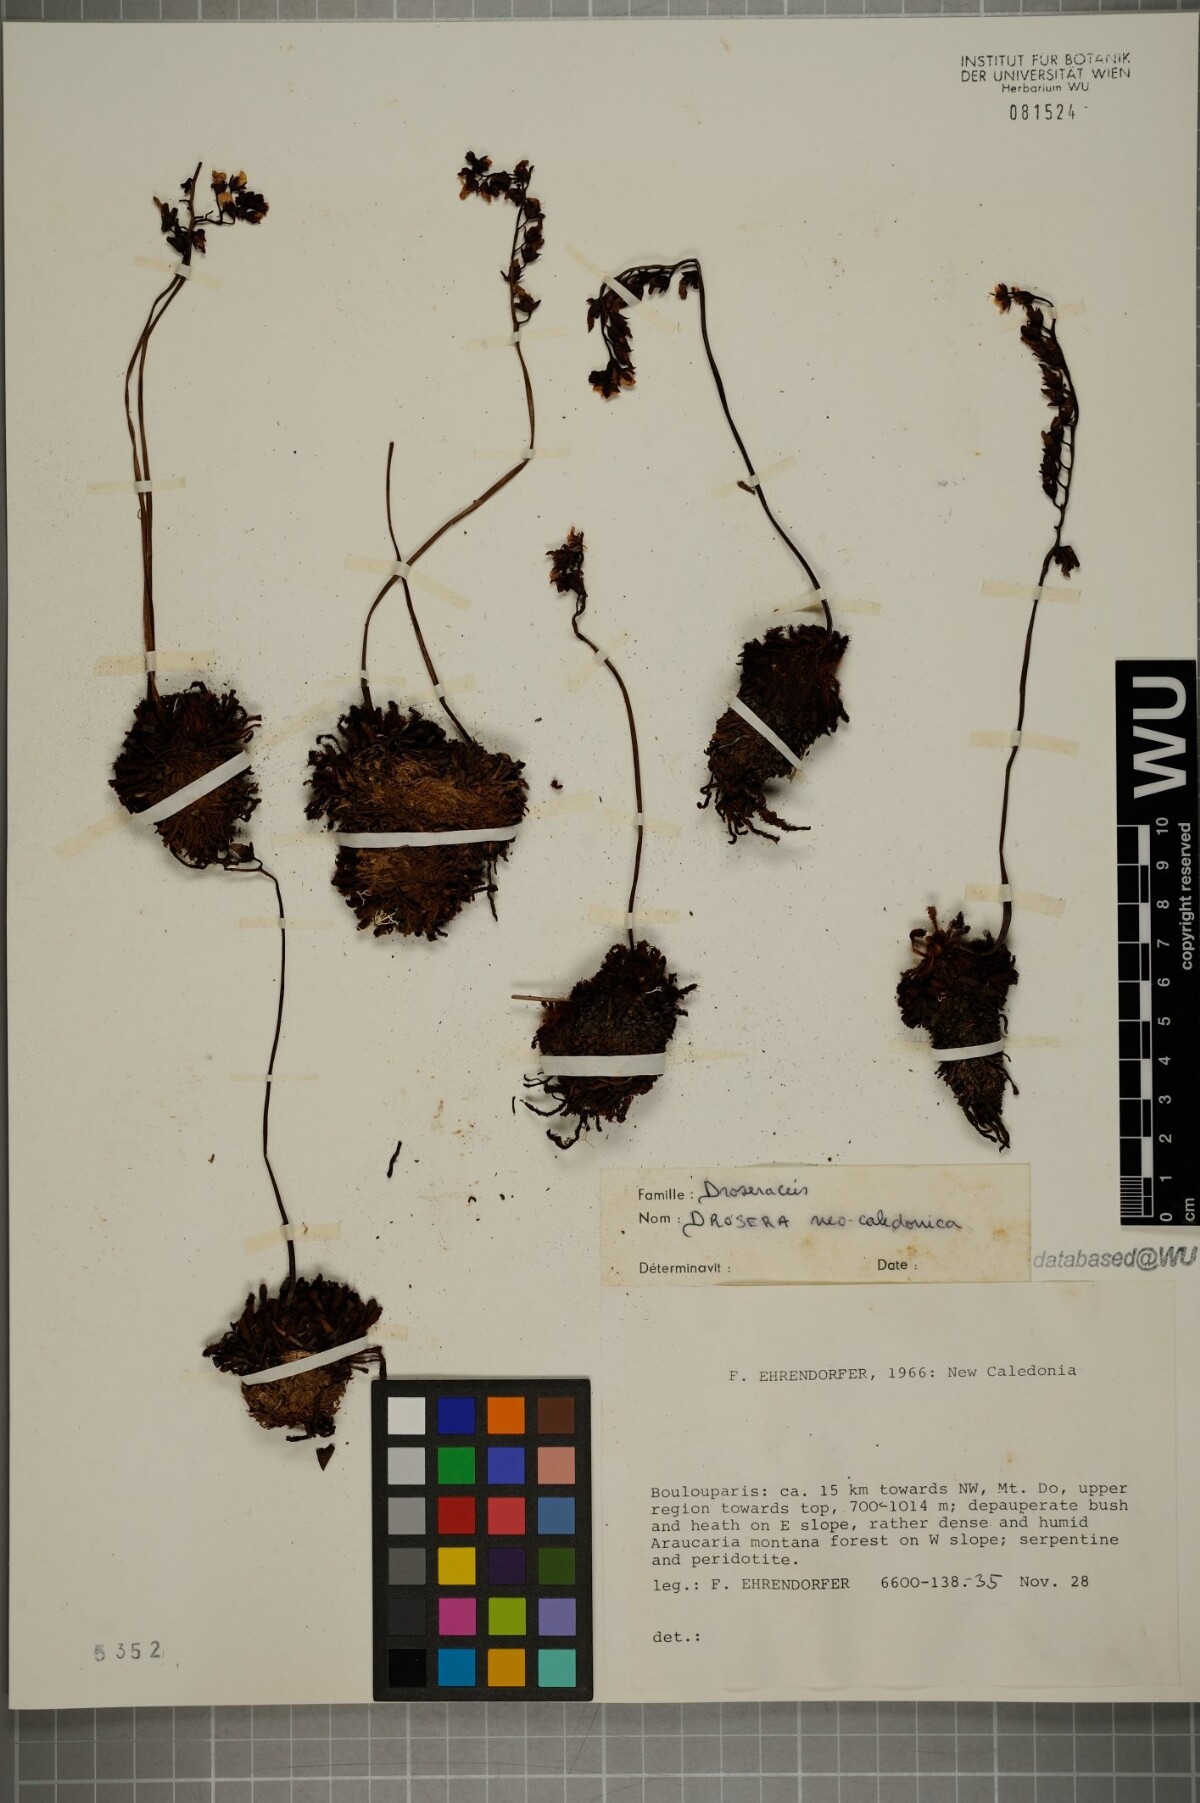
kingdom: Plantae
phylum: Tracheophyta
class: Magnoliopsida
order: Caryophyllales
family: Droseraceae
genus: Drosera
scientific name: Drosera neocaledonica
